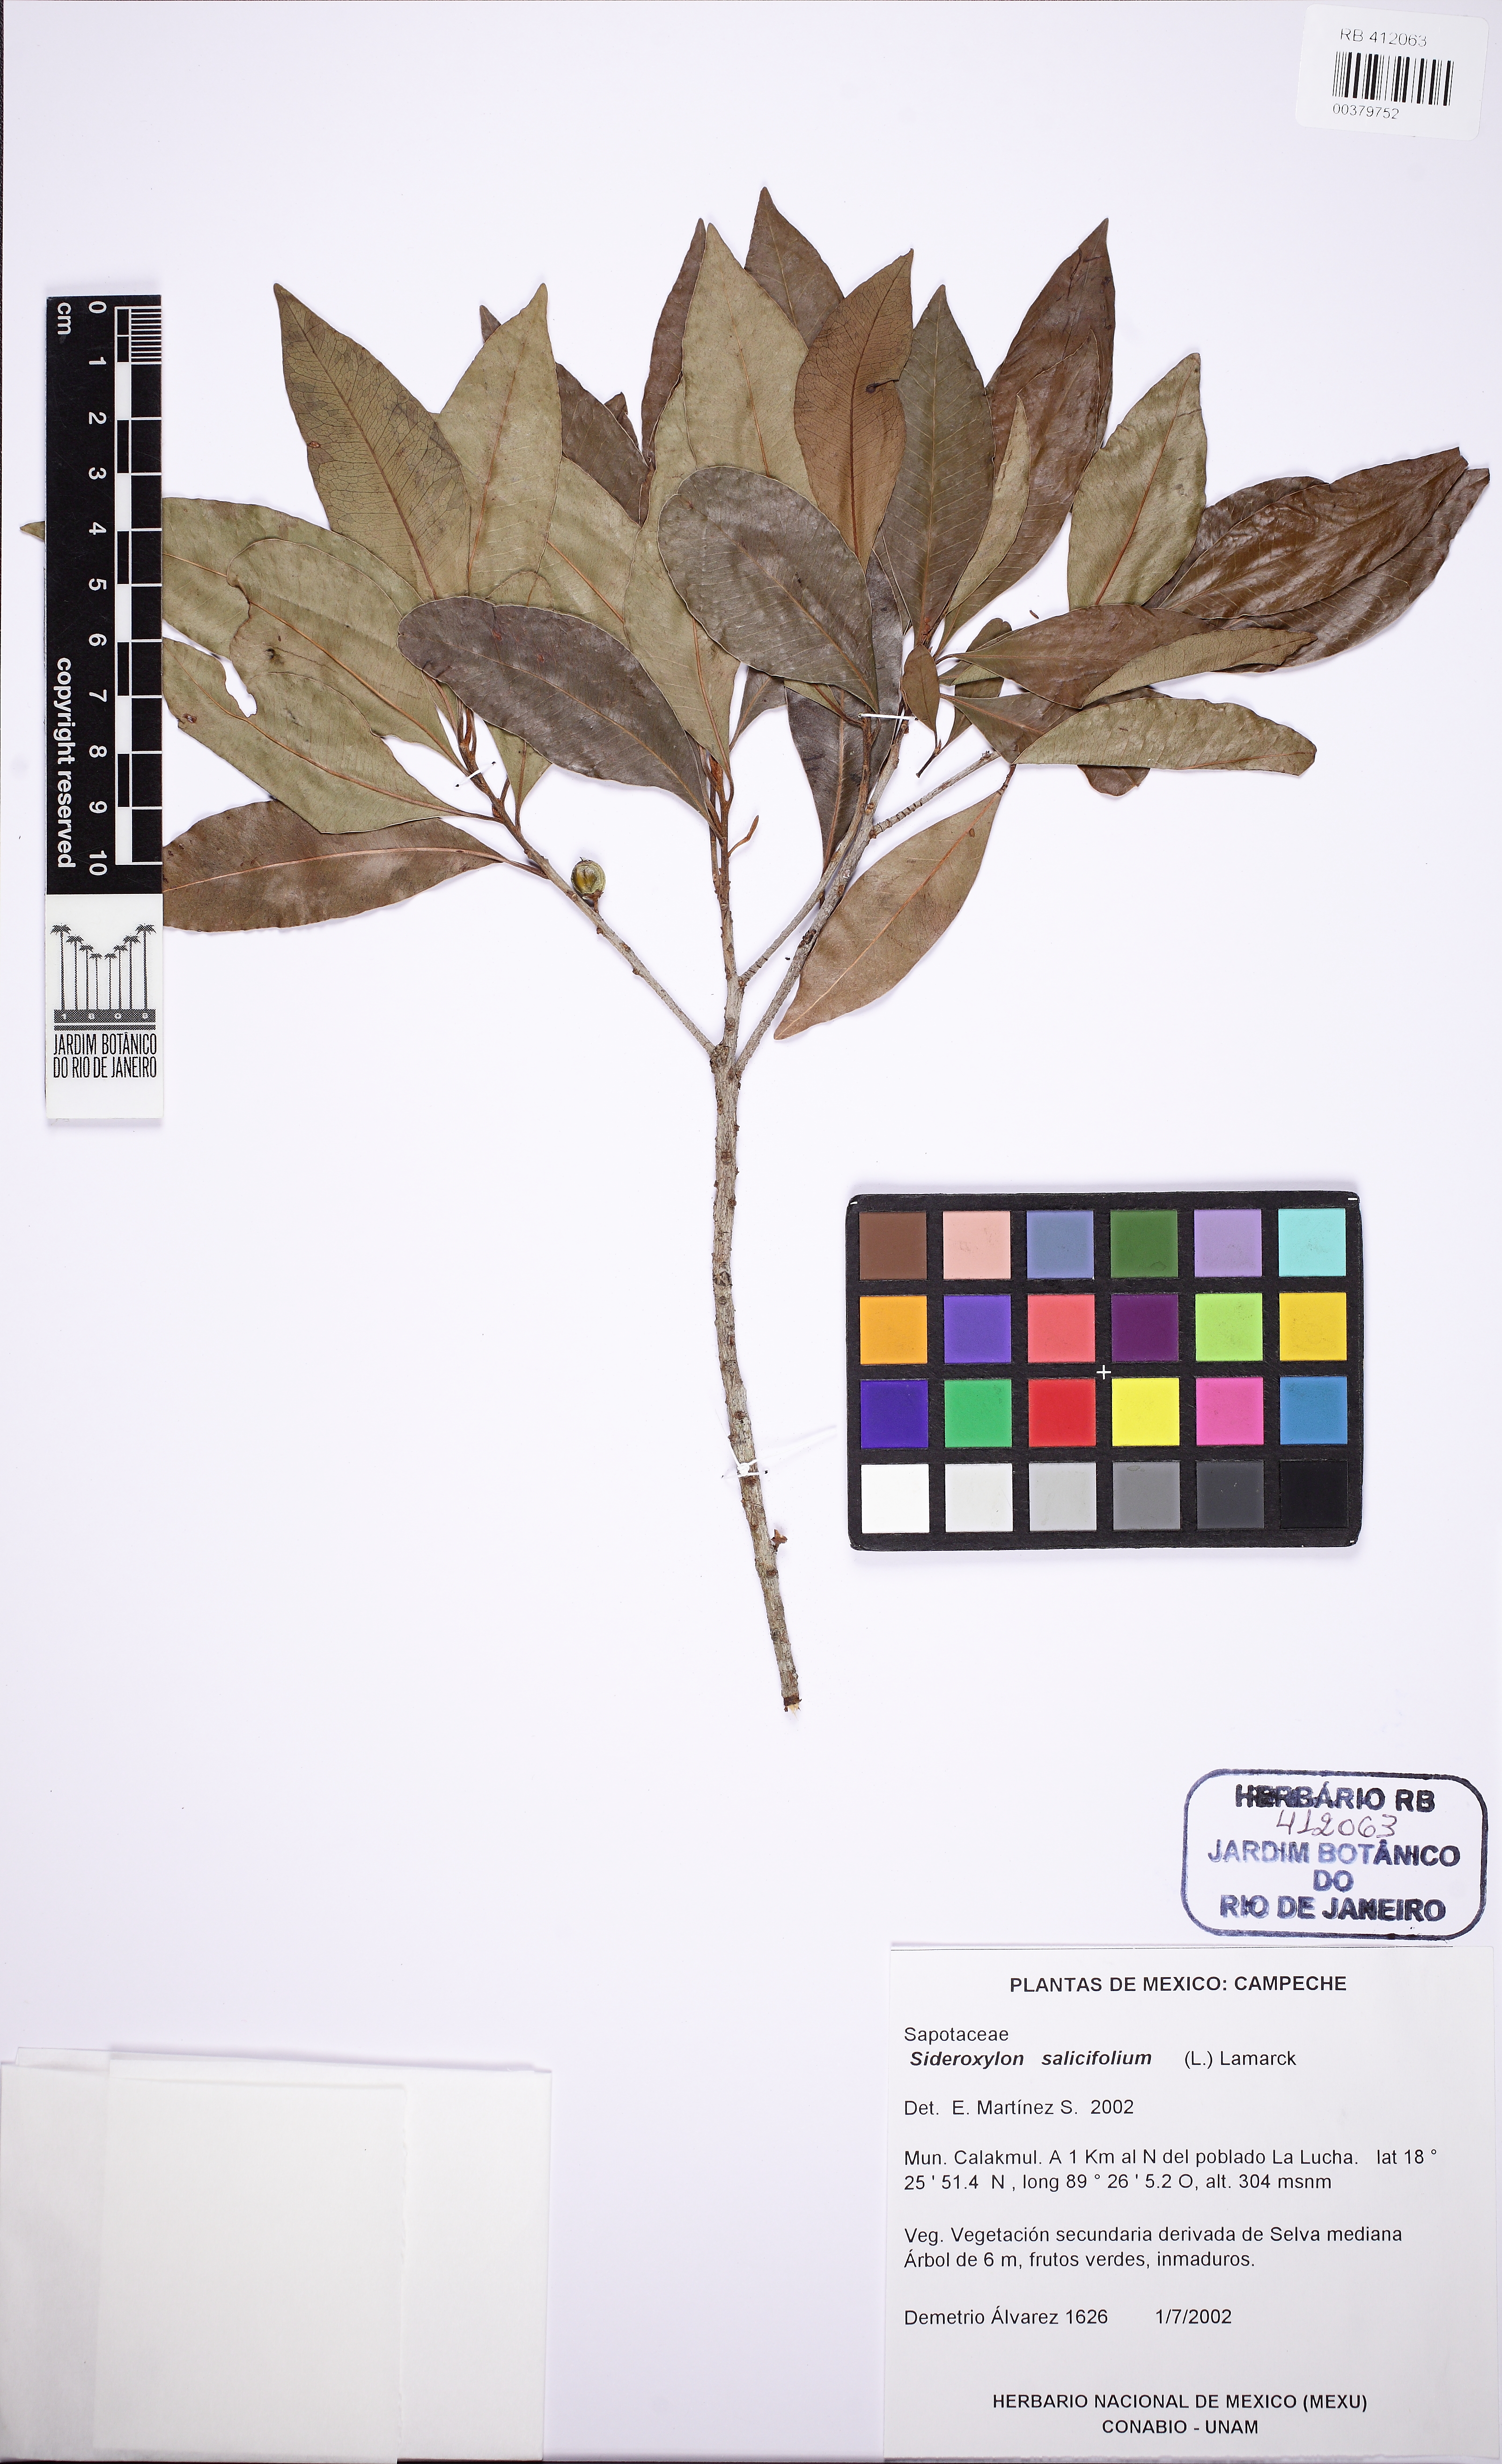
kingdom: Plantae
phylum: Tracheophyta
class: Magnoliopsida
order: Ericales
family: Sapotaceae
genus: Sideroxylon
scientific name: Sideroxylon salicifolium
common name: White bully
